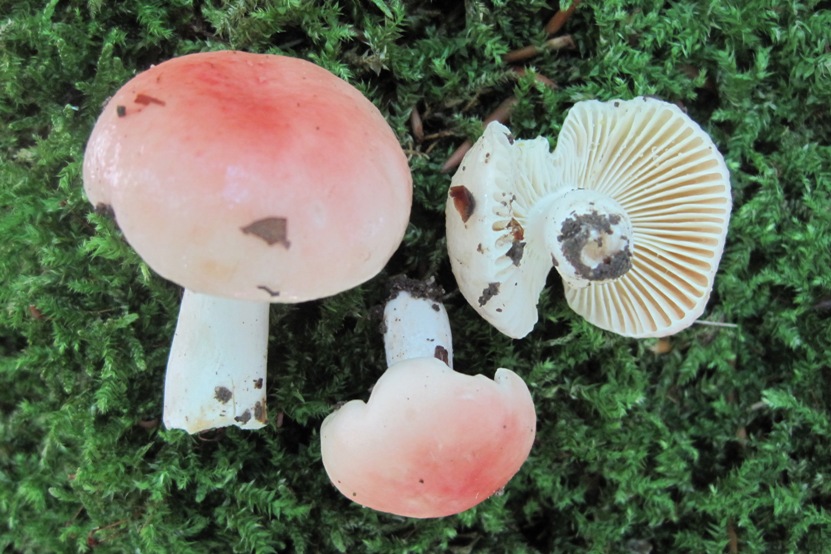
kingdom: Fungi
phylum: Basidiomycota
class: Agaricomycetes
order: Russulales
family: Russulaceae
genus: Russula
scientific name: Russula luteotacta
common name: gulplettet gift-skørhat
